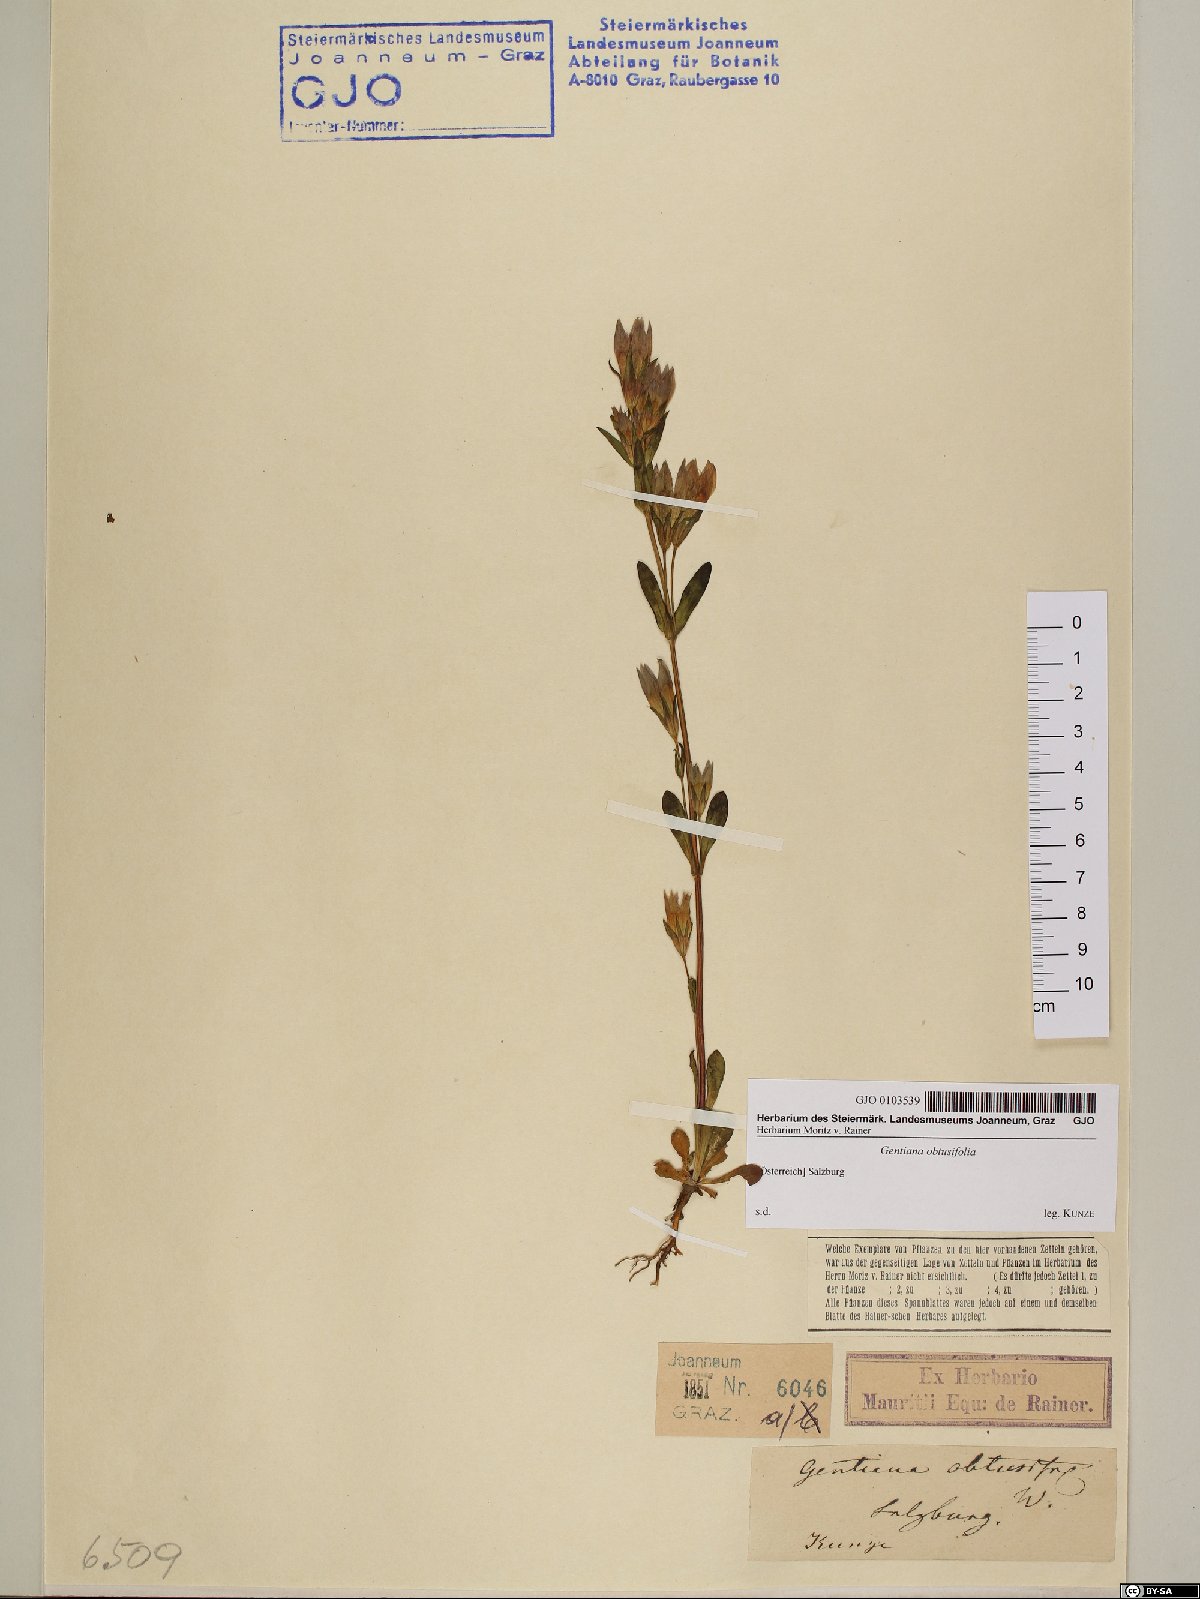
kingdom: Plantae
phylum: Tracheophyta
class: Magnoliopsida
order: Gentianales
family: Gentianaceae
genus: Gentianella
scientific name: Gentianella obtusifolia
